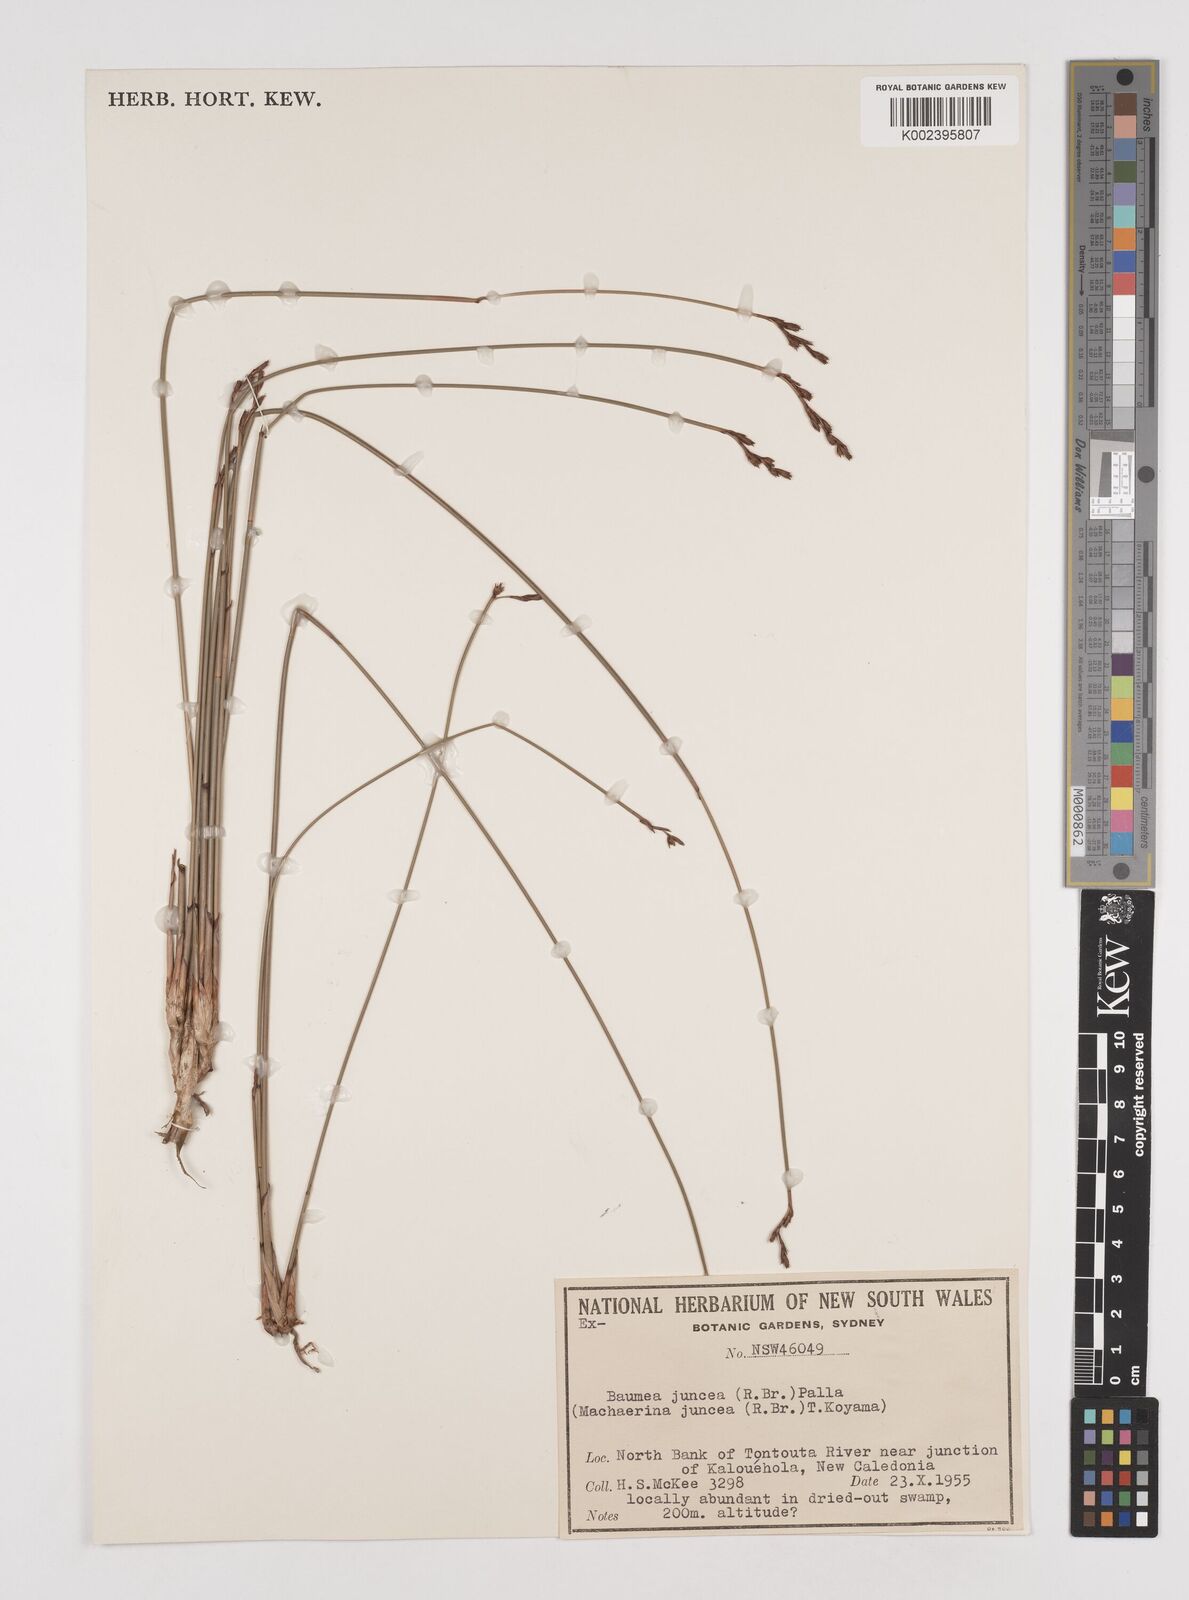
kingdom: Plantae
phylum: Tracheophyta
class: Liliopsida
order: Poales
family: Cyperaceae
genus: Machaerina
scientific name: Machaerina juncea
